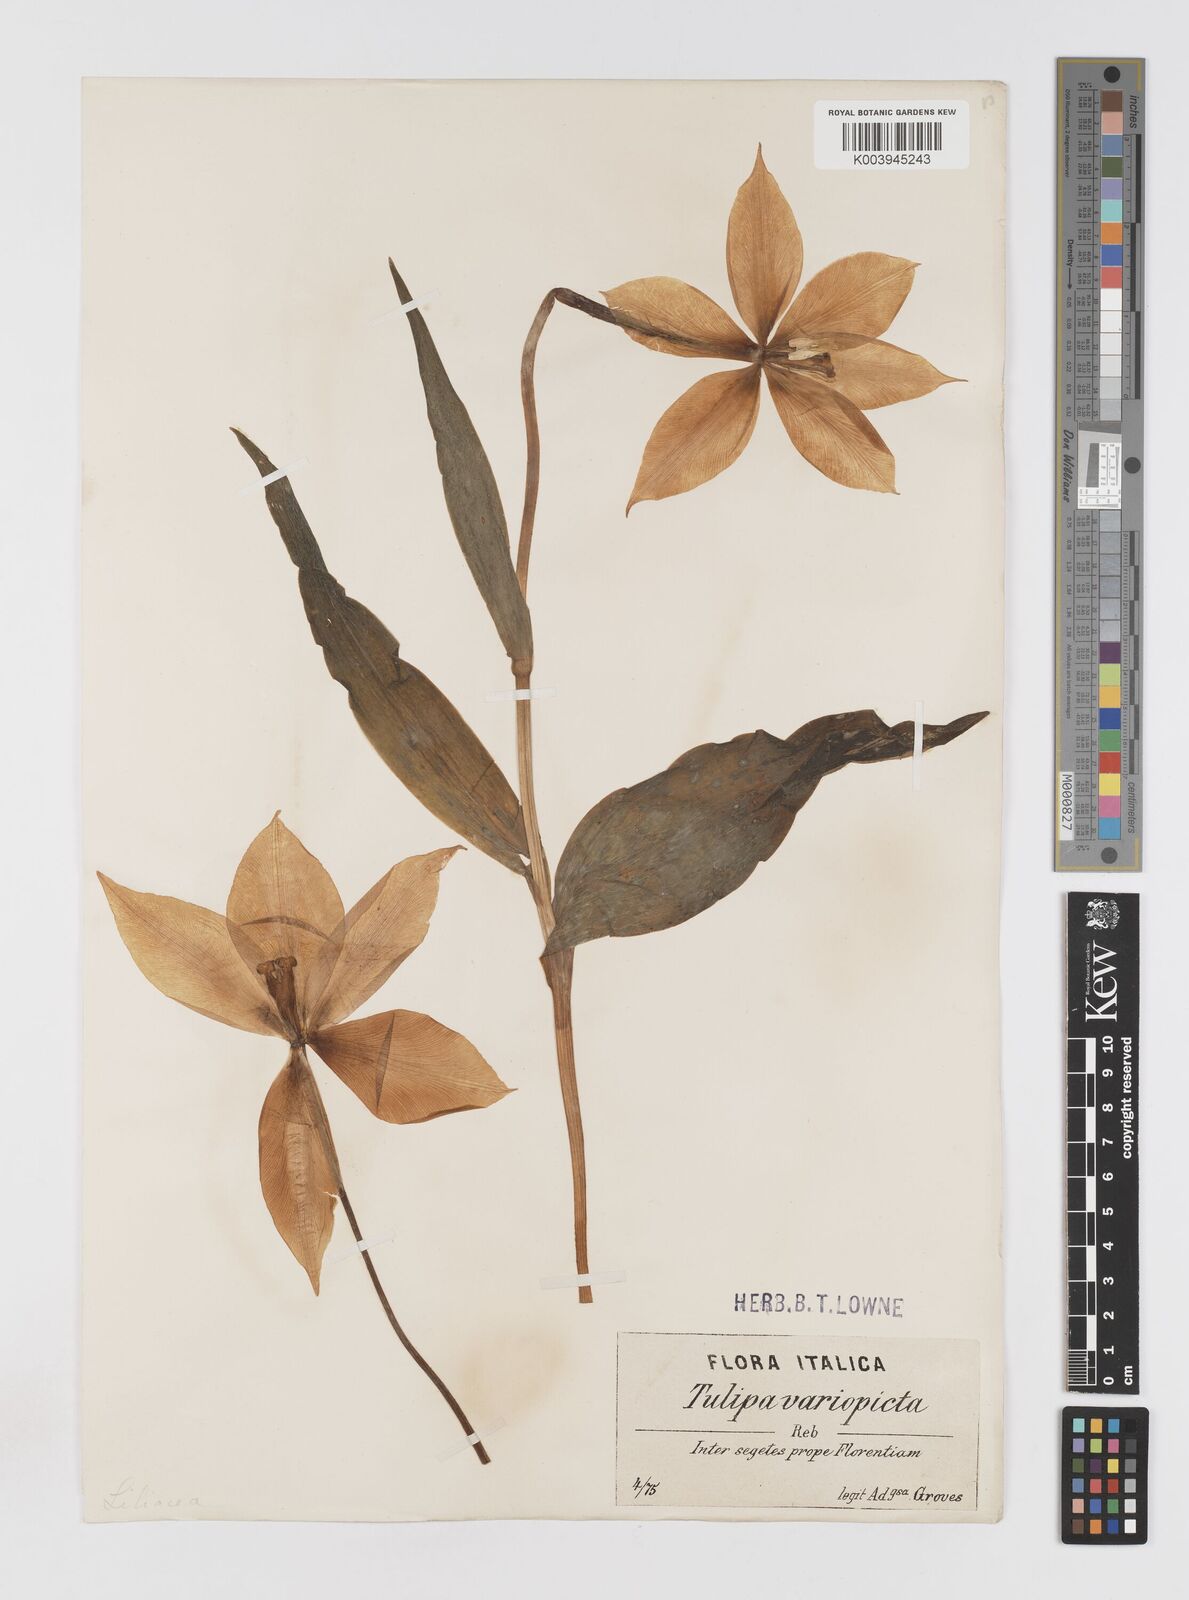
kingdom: Plantae
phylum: Tracheophyta
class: Liliopsida
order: Liliales
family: Liliaceae
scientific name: Liliaceae
